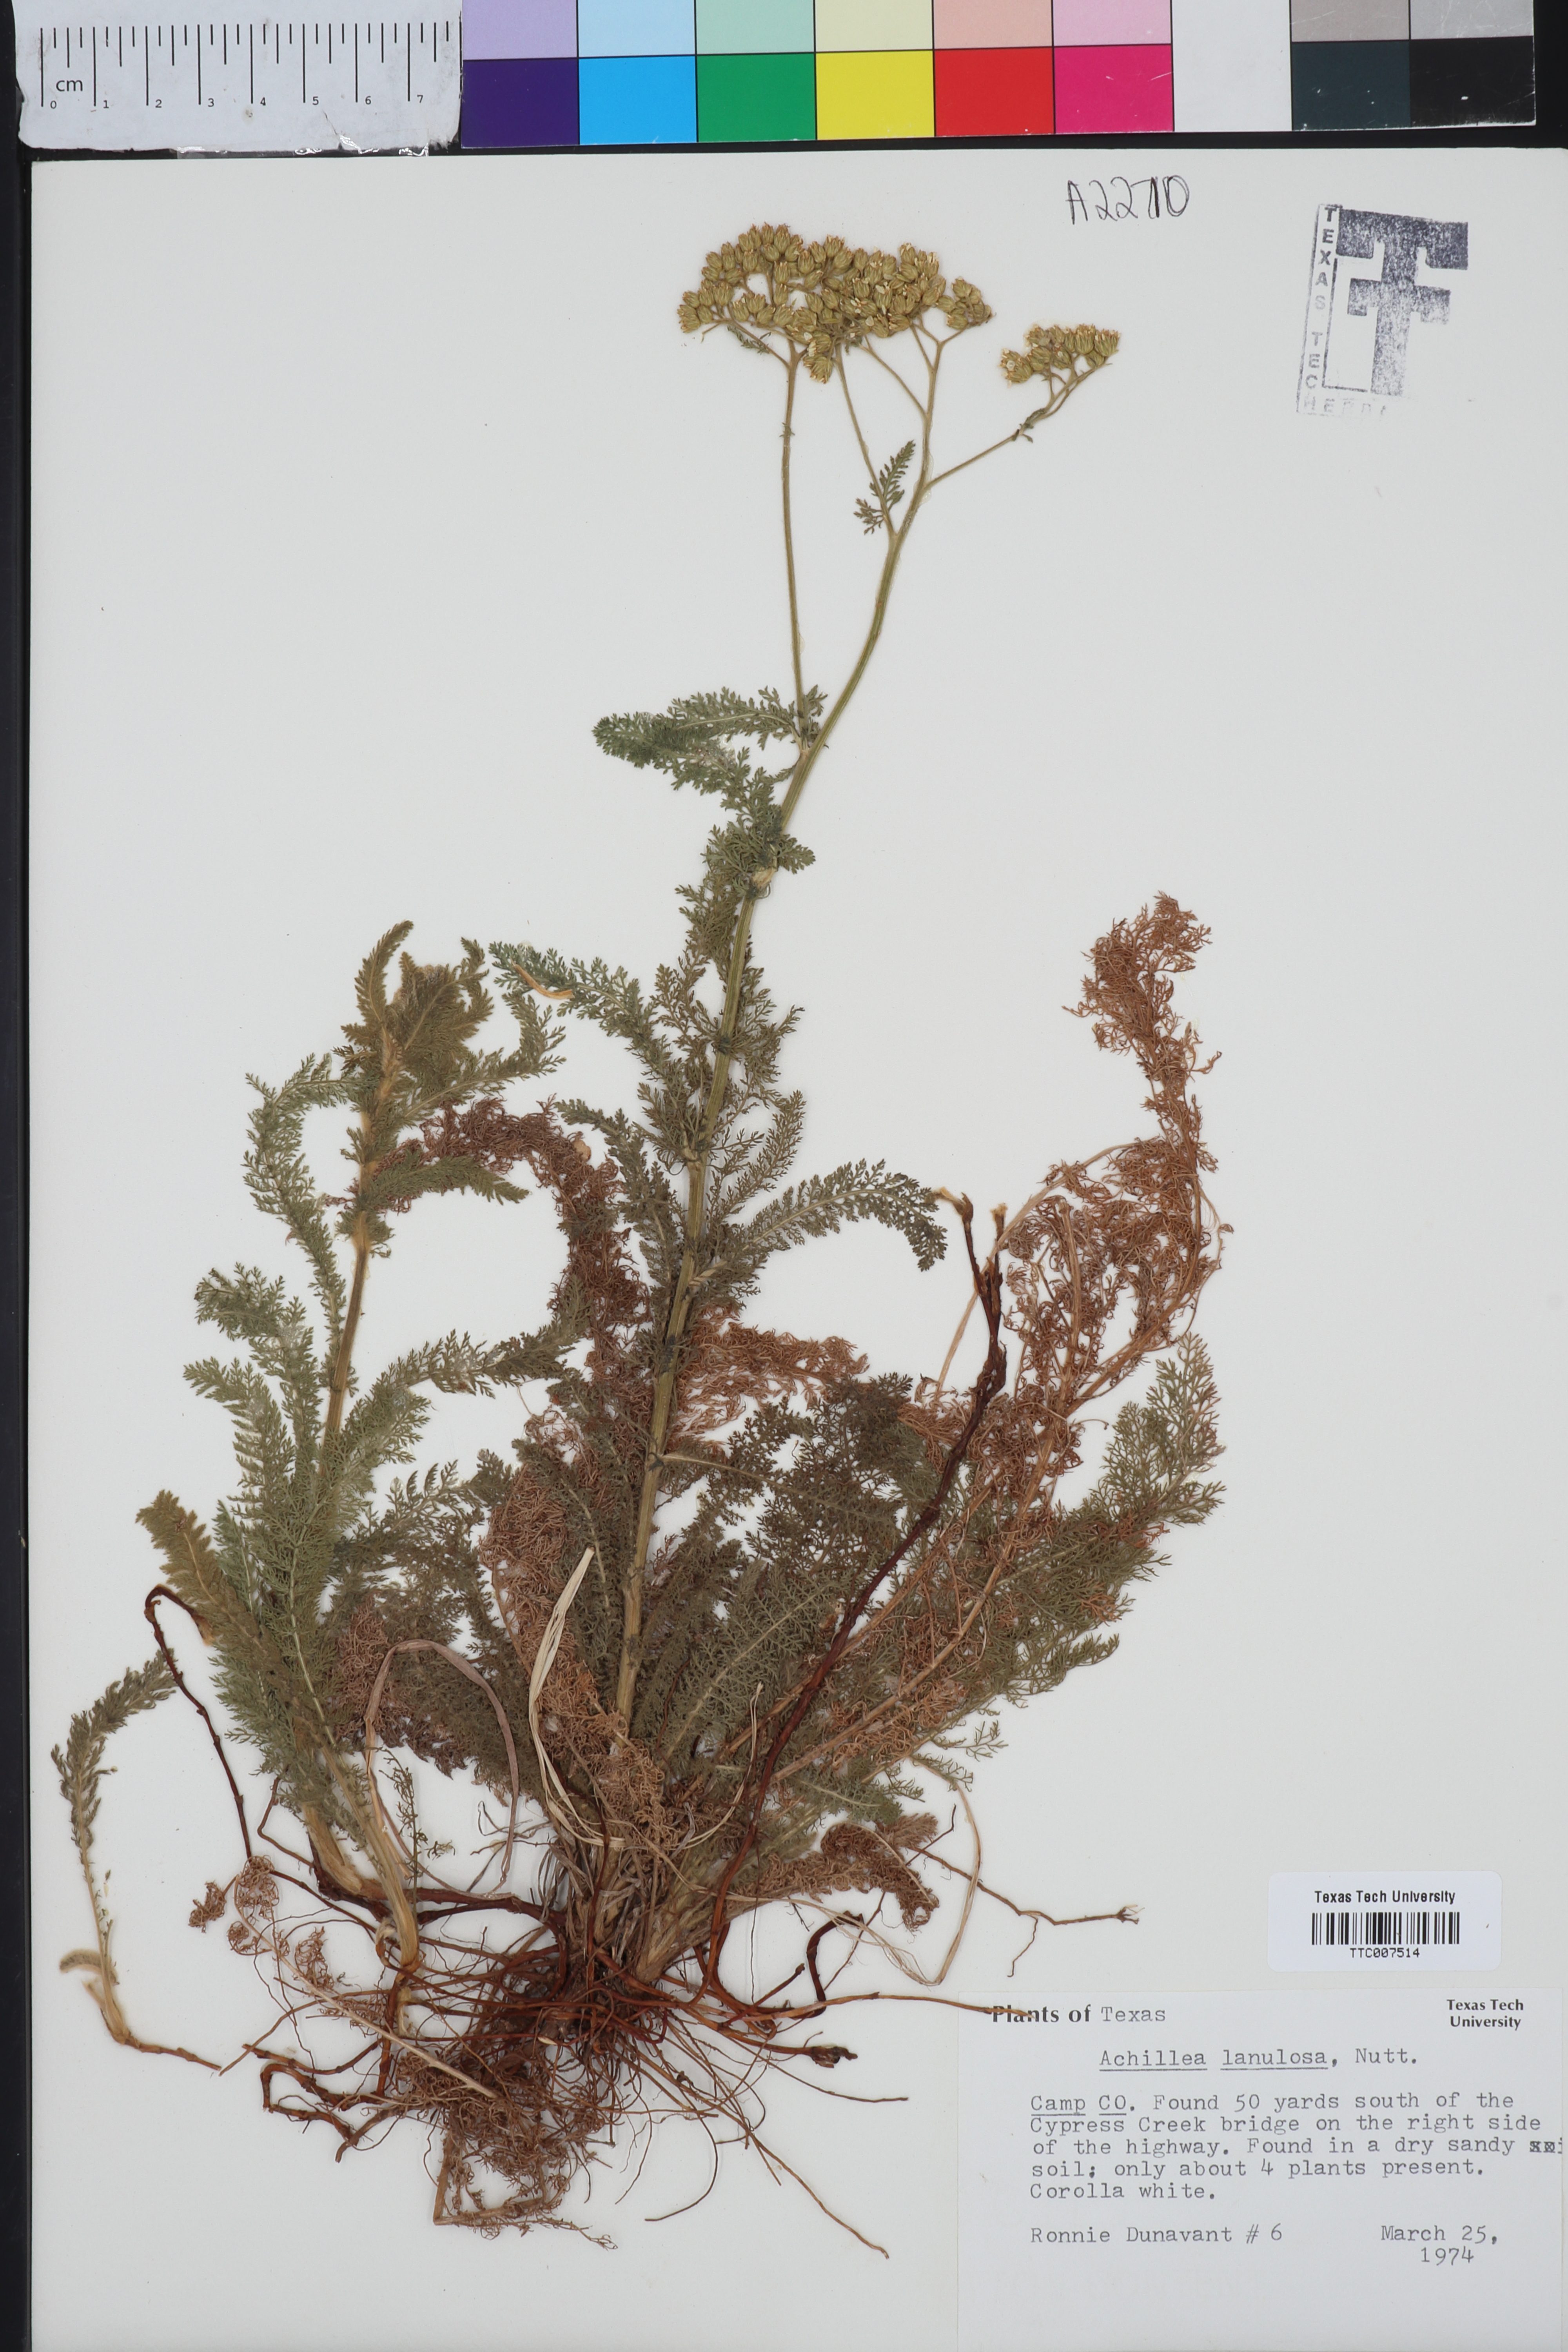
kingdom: Plantae
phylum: Tracheophyta
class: Magnoliopsida
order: Asterales
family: Asteraceae
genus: Achillea
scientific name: Achillea millefolium
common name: Yarrow
